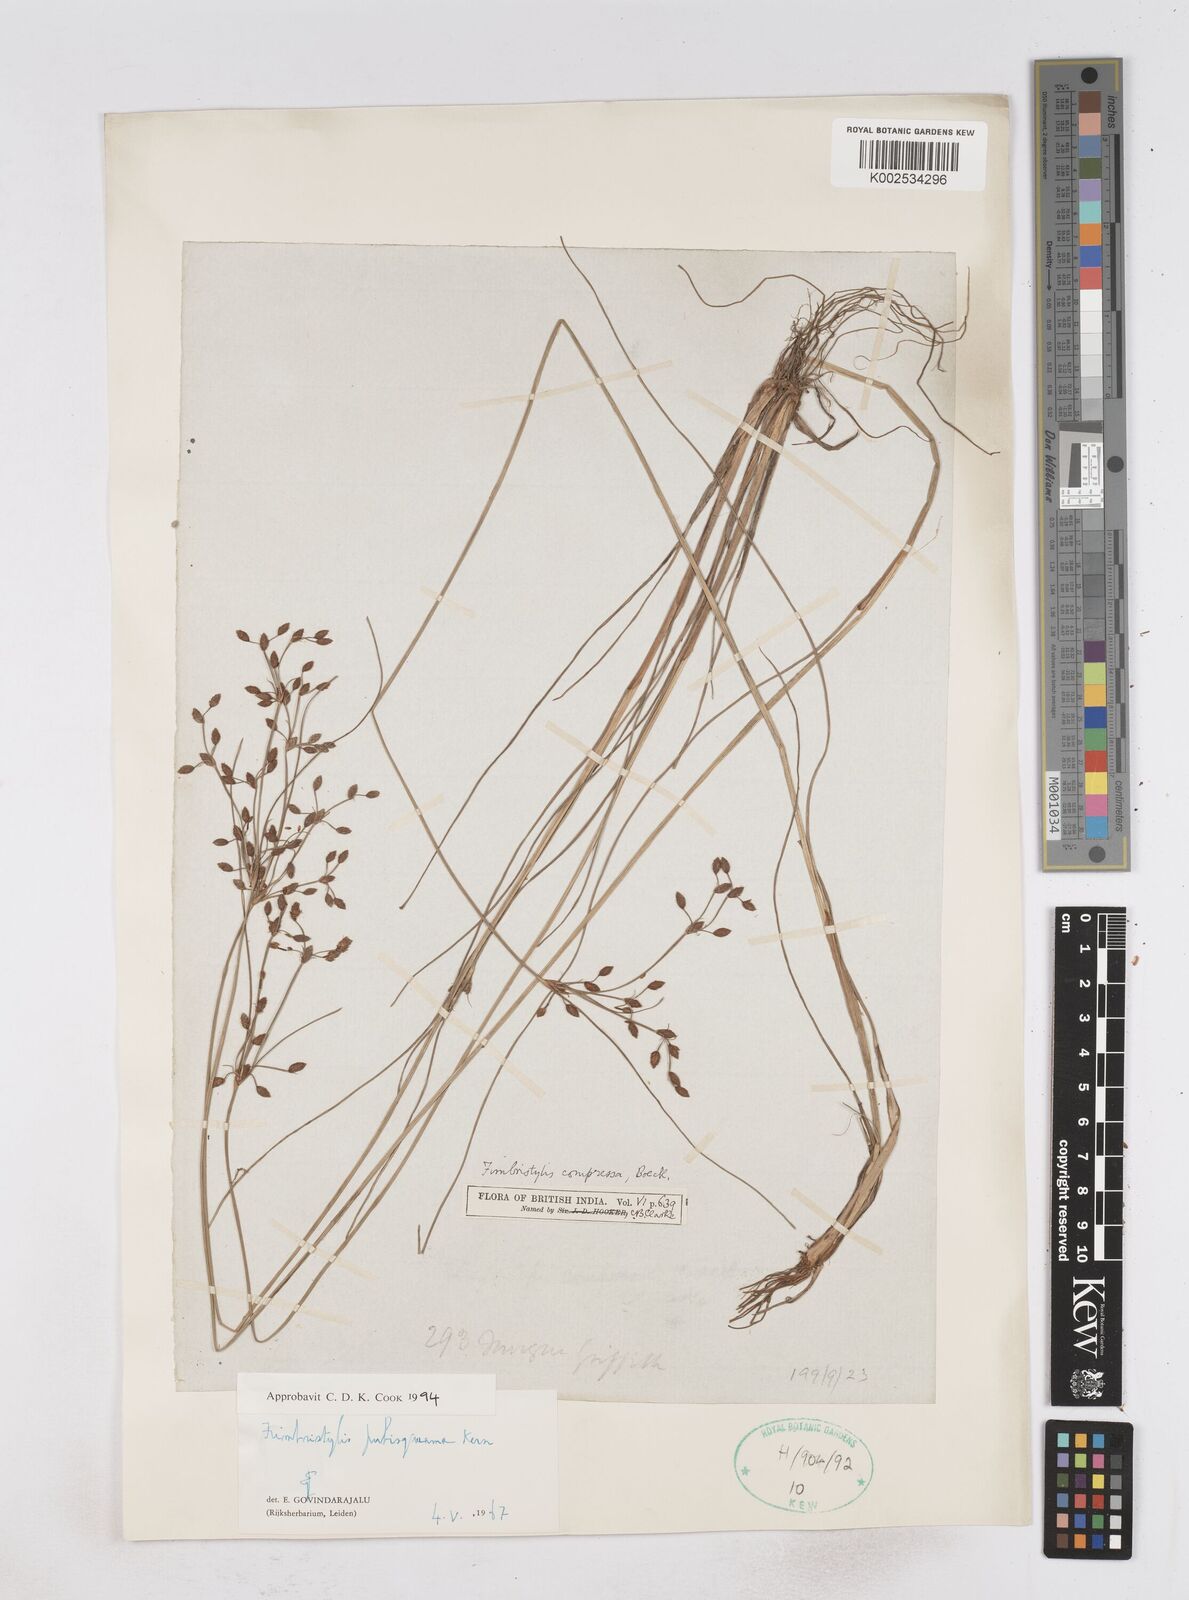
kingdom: Plantae
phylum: Tracheophyta
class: Liliopsida
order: Poales
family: Cyperaceae
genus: Fimbristylis
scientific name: Fimbristylis pubisquama
